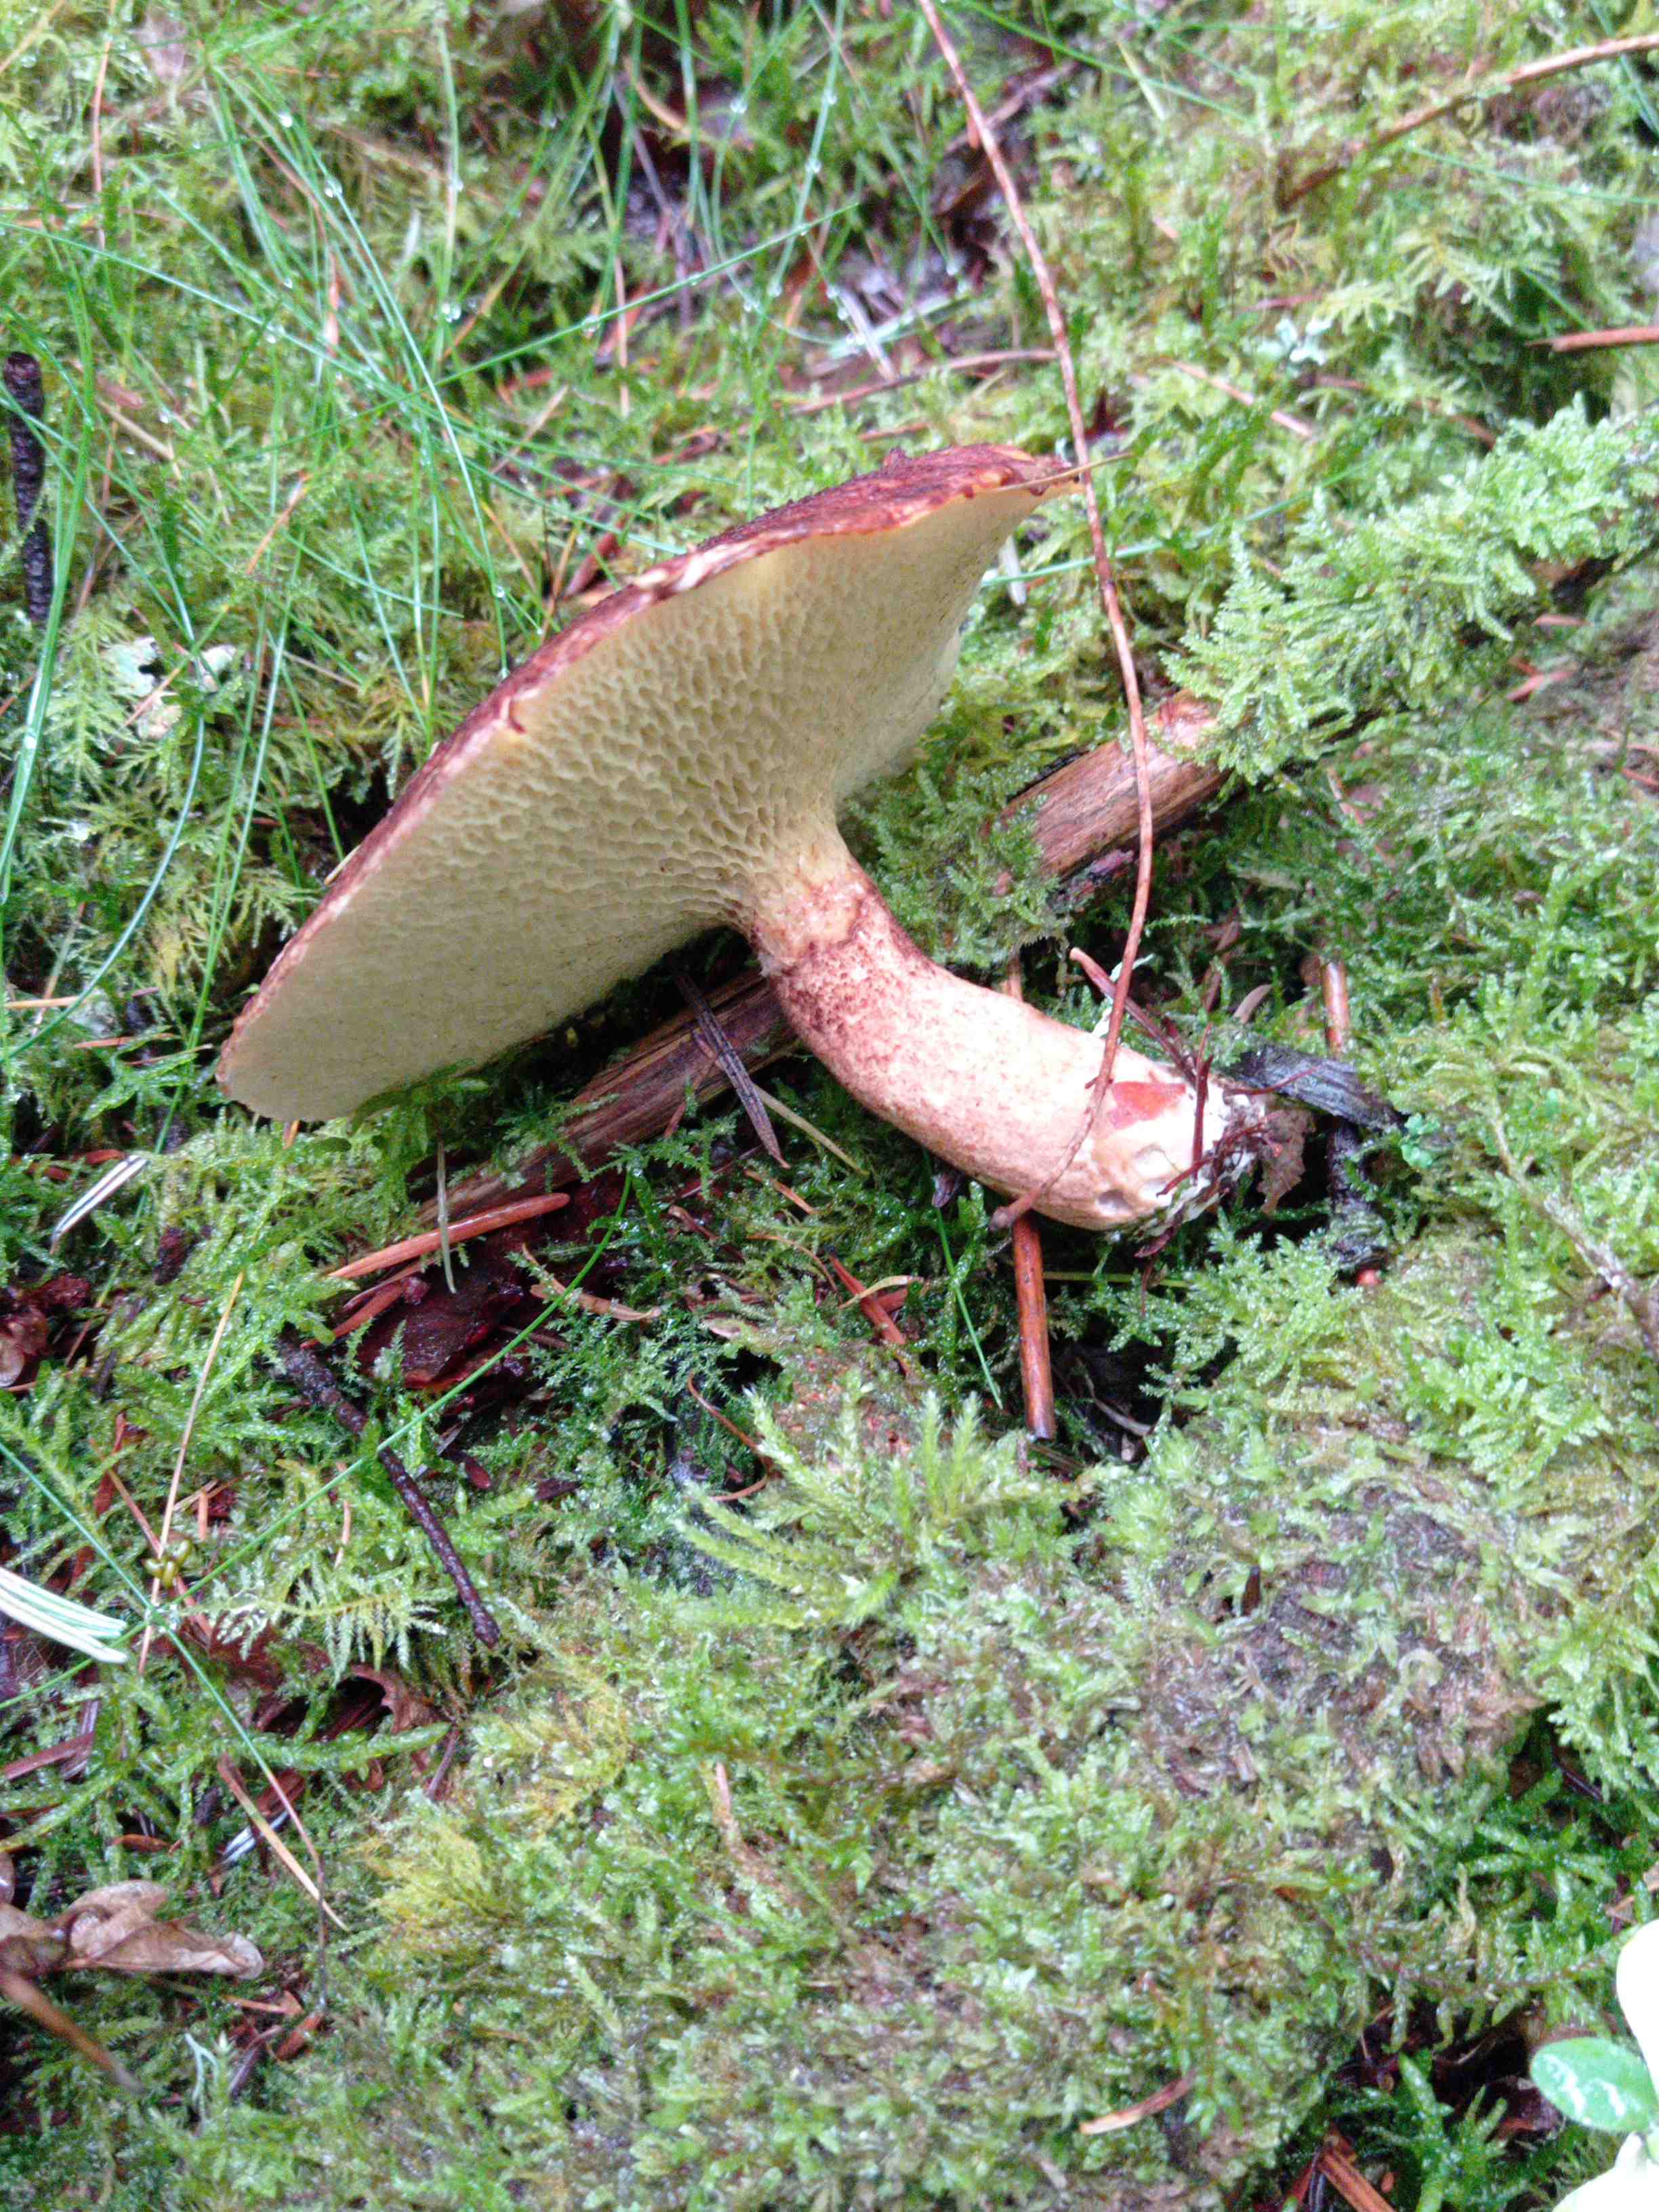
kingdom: Fungi
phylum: Basidiomycota
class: Agaricomycetes
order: Boletales
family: Suillaceae
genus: Suillus
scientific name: Suillus cavipes
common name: hulstokket slimrørhat
